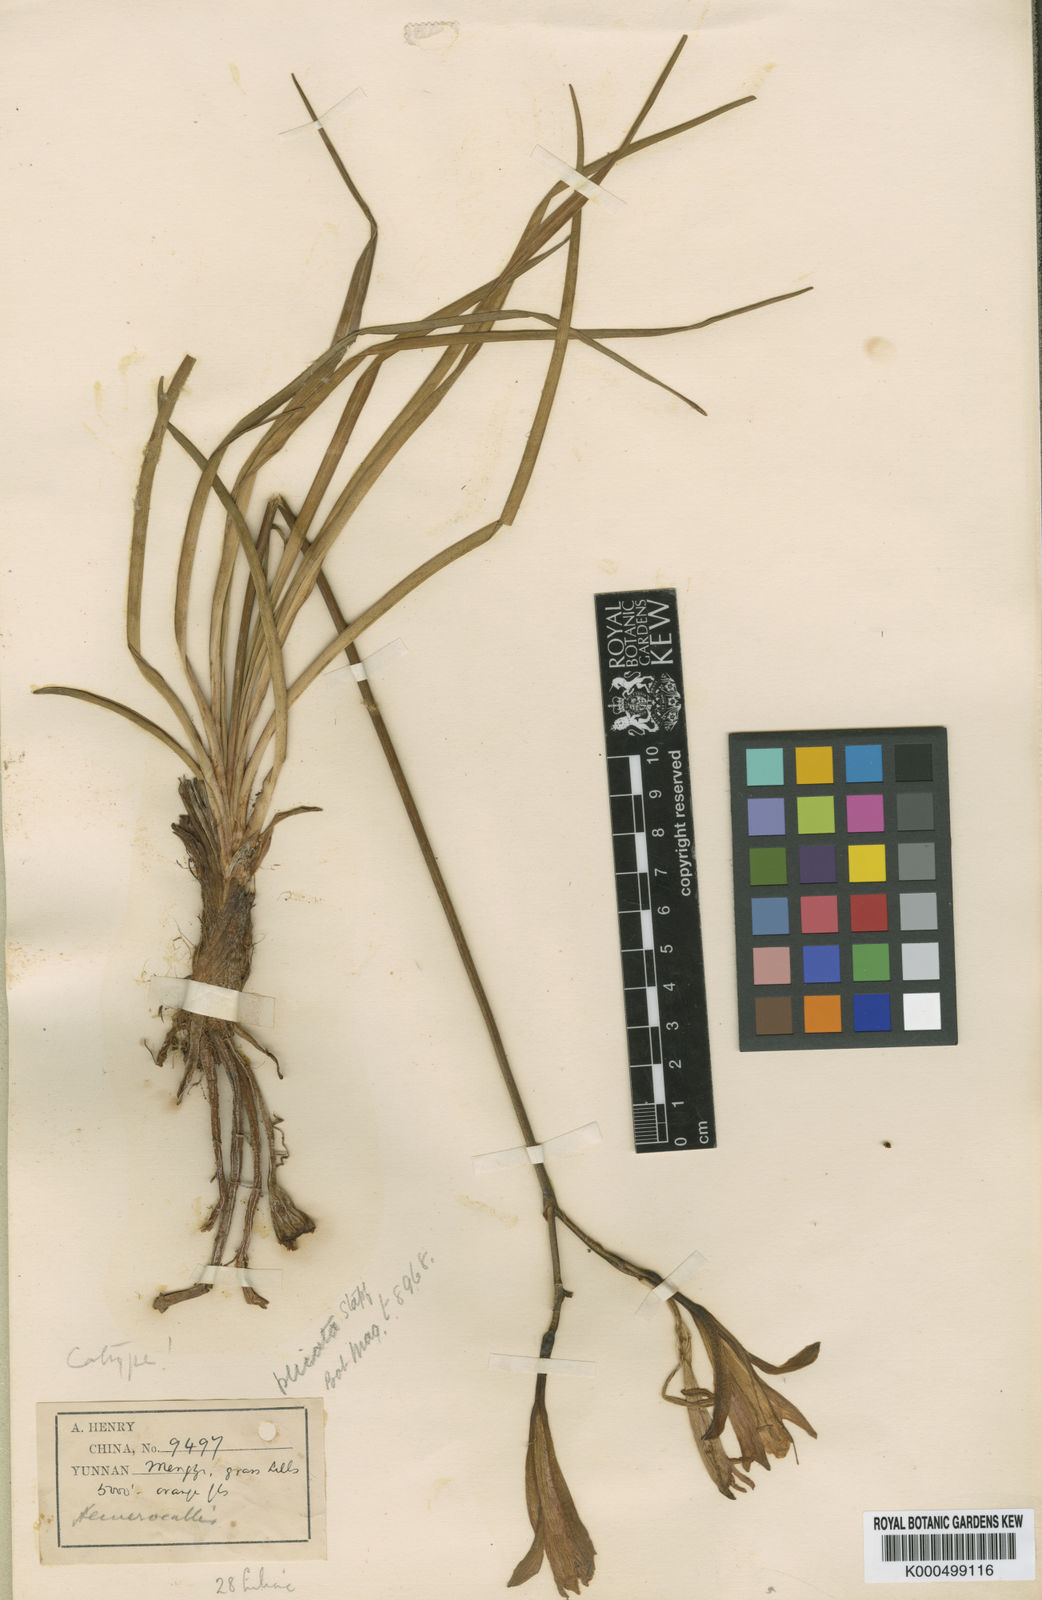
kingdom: Plantae
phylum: Tracheophyta
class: Liliopsida
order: Asparagales
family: Asphodelaceae
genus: Hemerocallis
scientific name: Hemerocallis plicata
